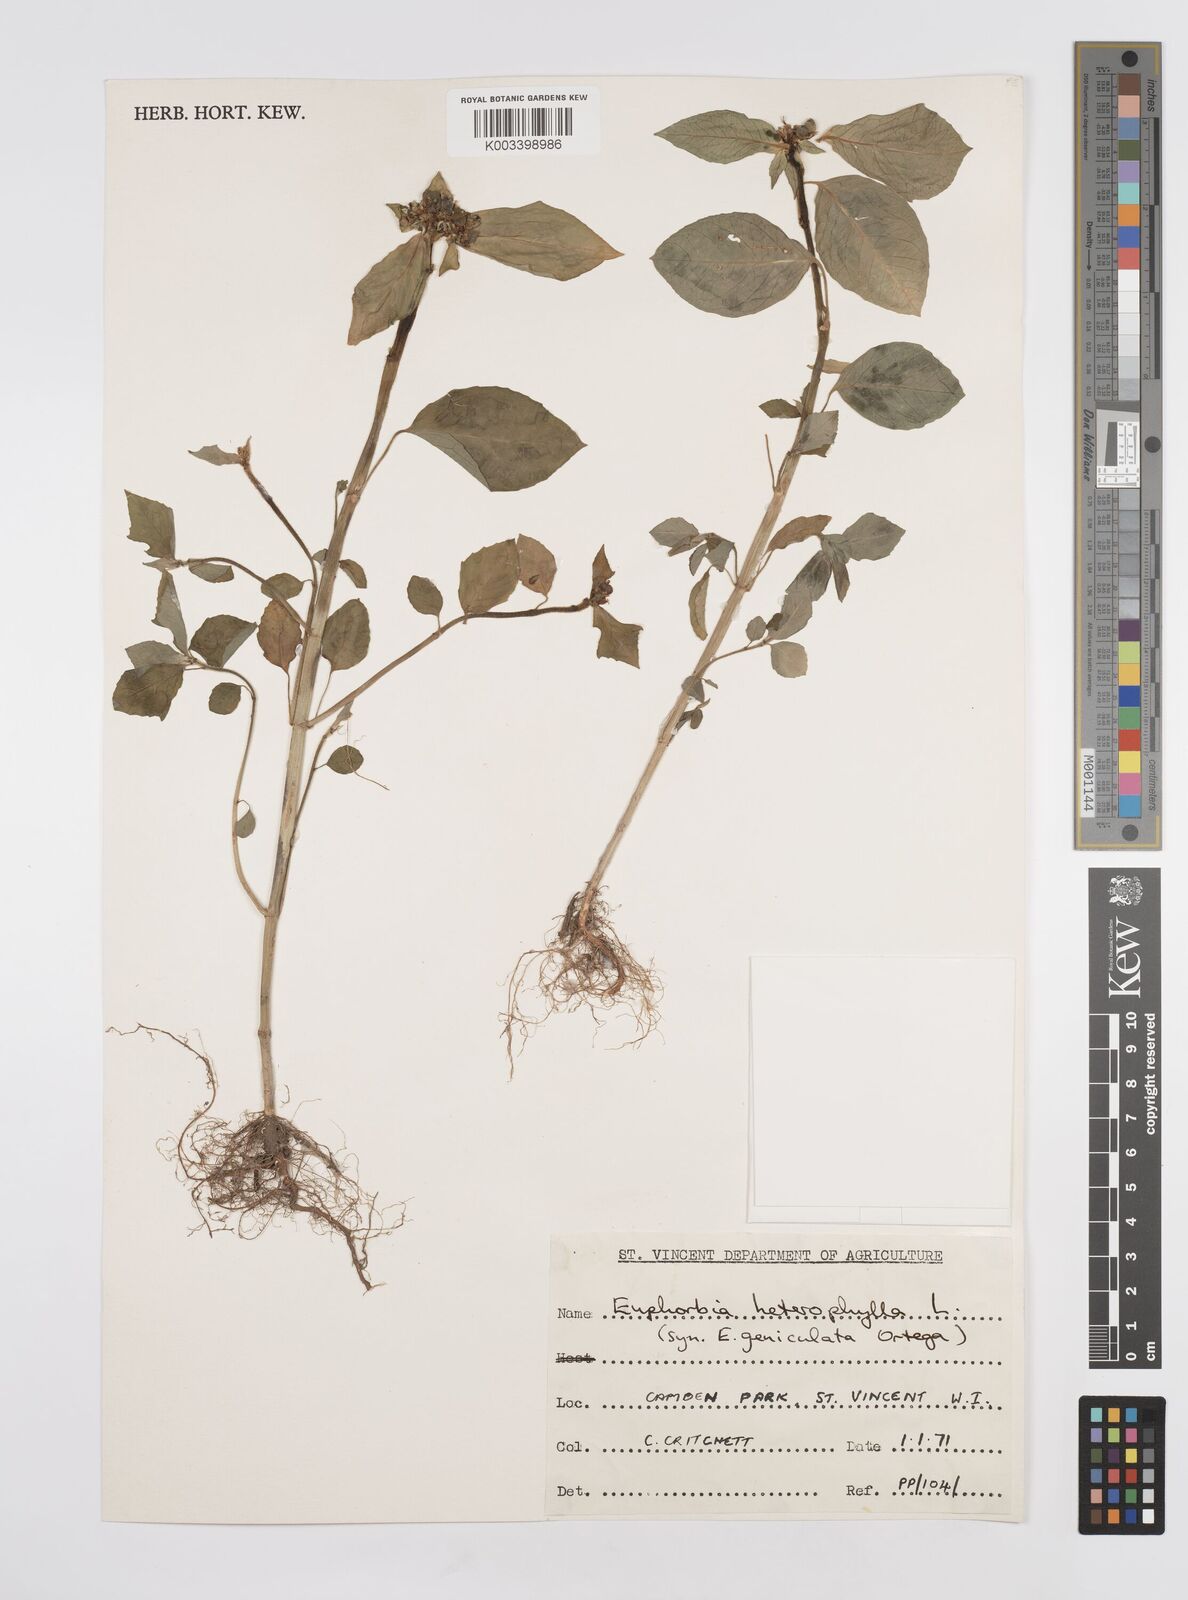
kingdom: Plantae
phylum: Tracheophyta
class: Magnoliopsida
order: Malpighiales
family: Euphorbiaceae
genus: Euphorbia
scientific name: Euphorbia heterophylla
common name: Mexican fireplant
